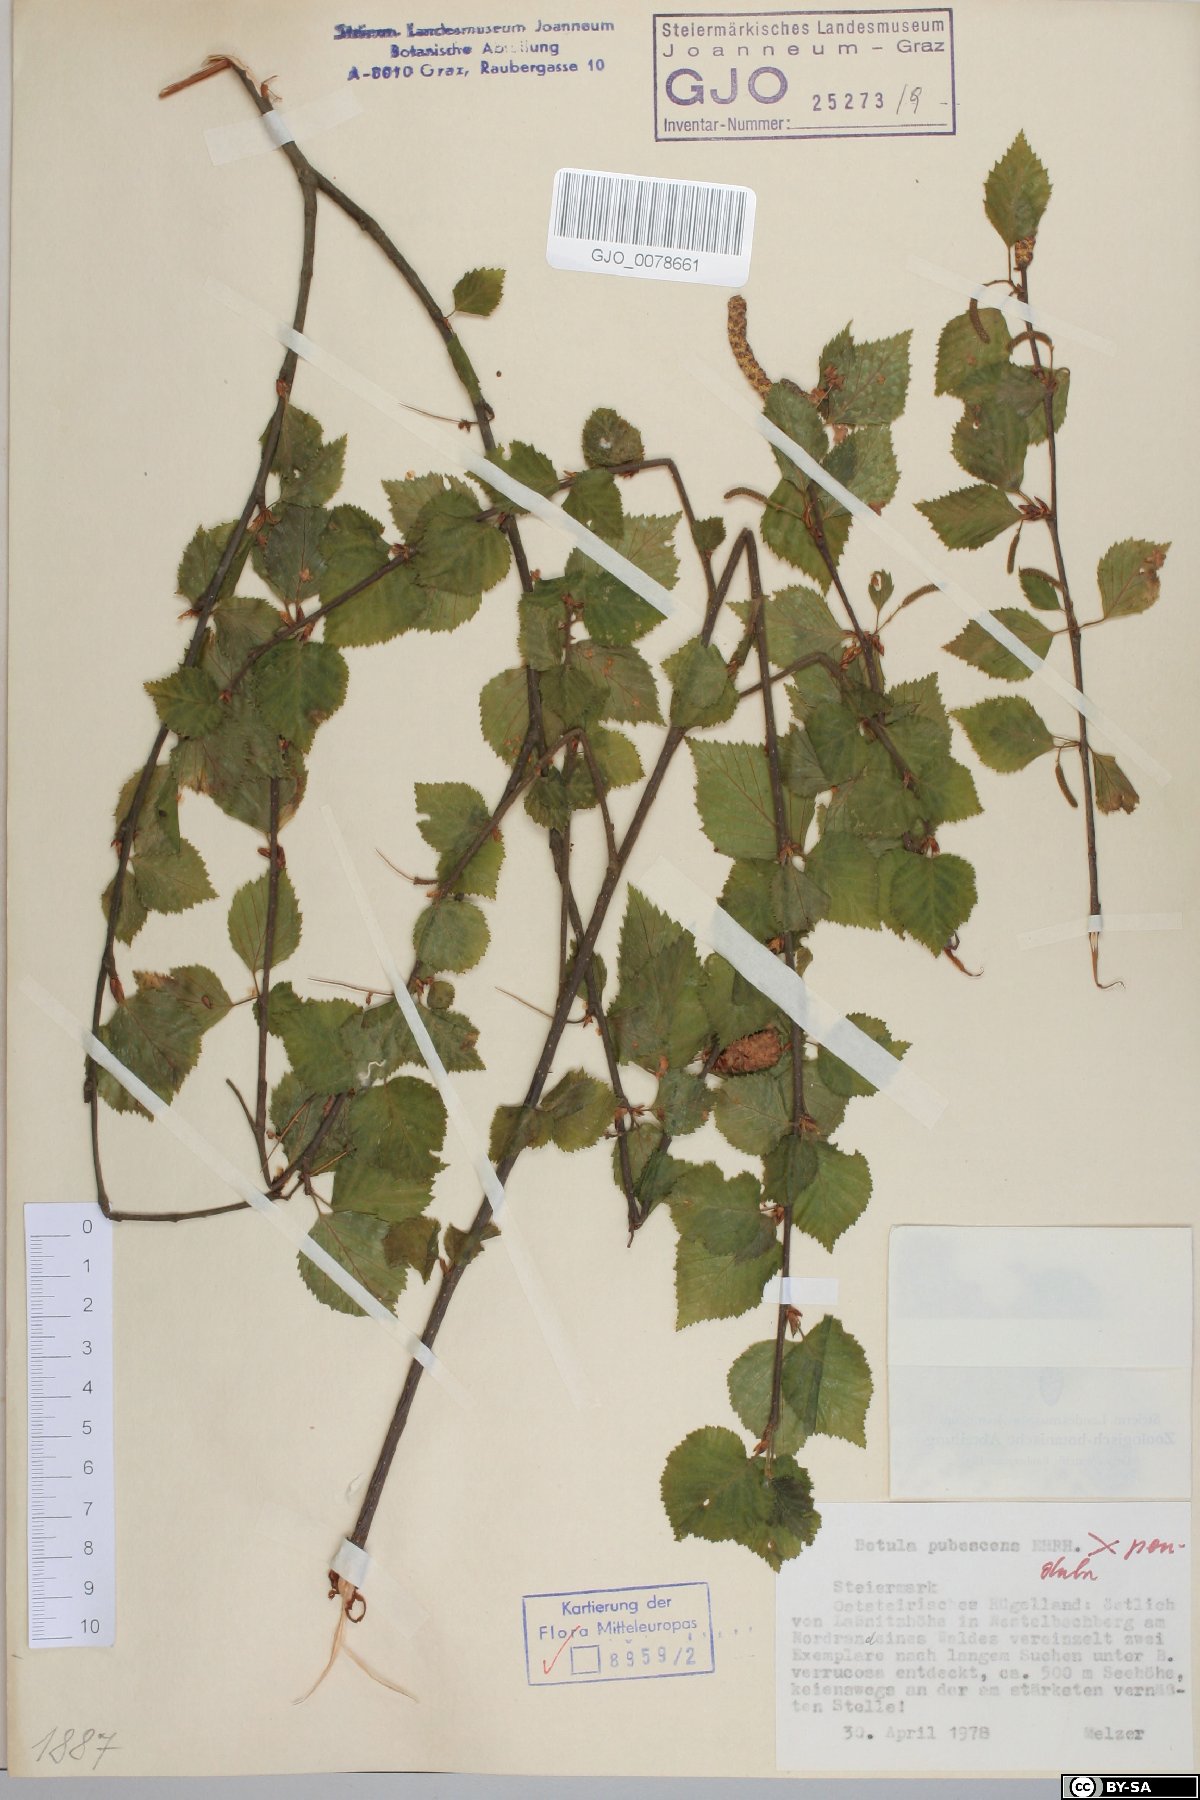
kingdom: Plantae
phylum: Tracheophyta
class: Magnoliopsida
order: Fagales
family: Betulaceae
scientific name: Betulaceae
